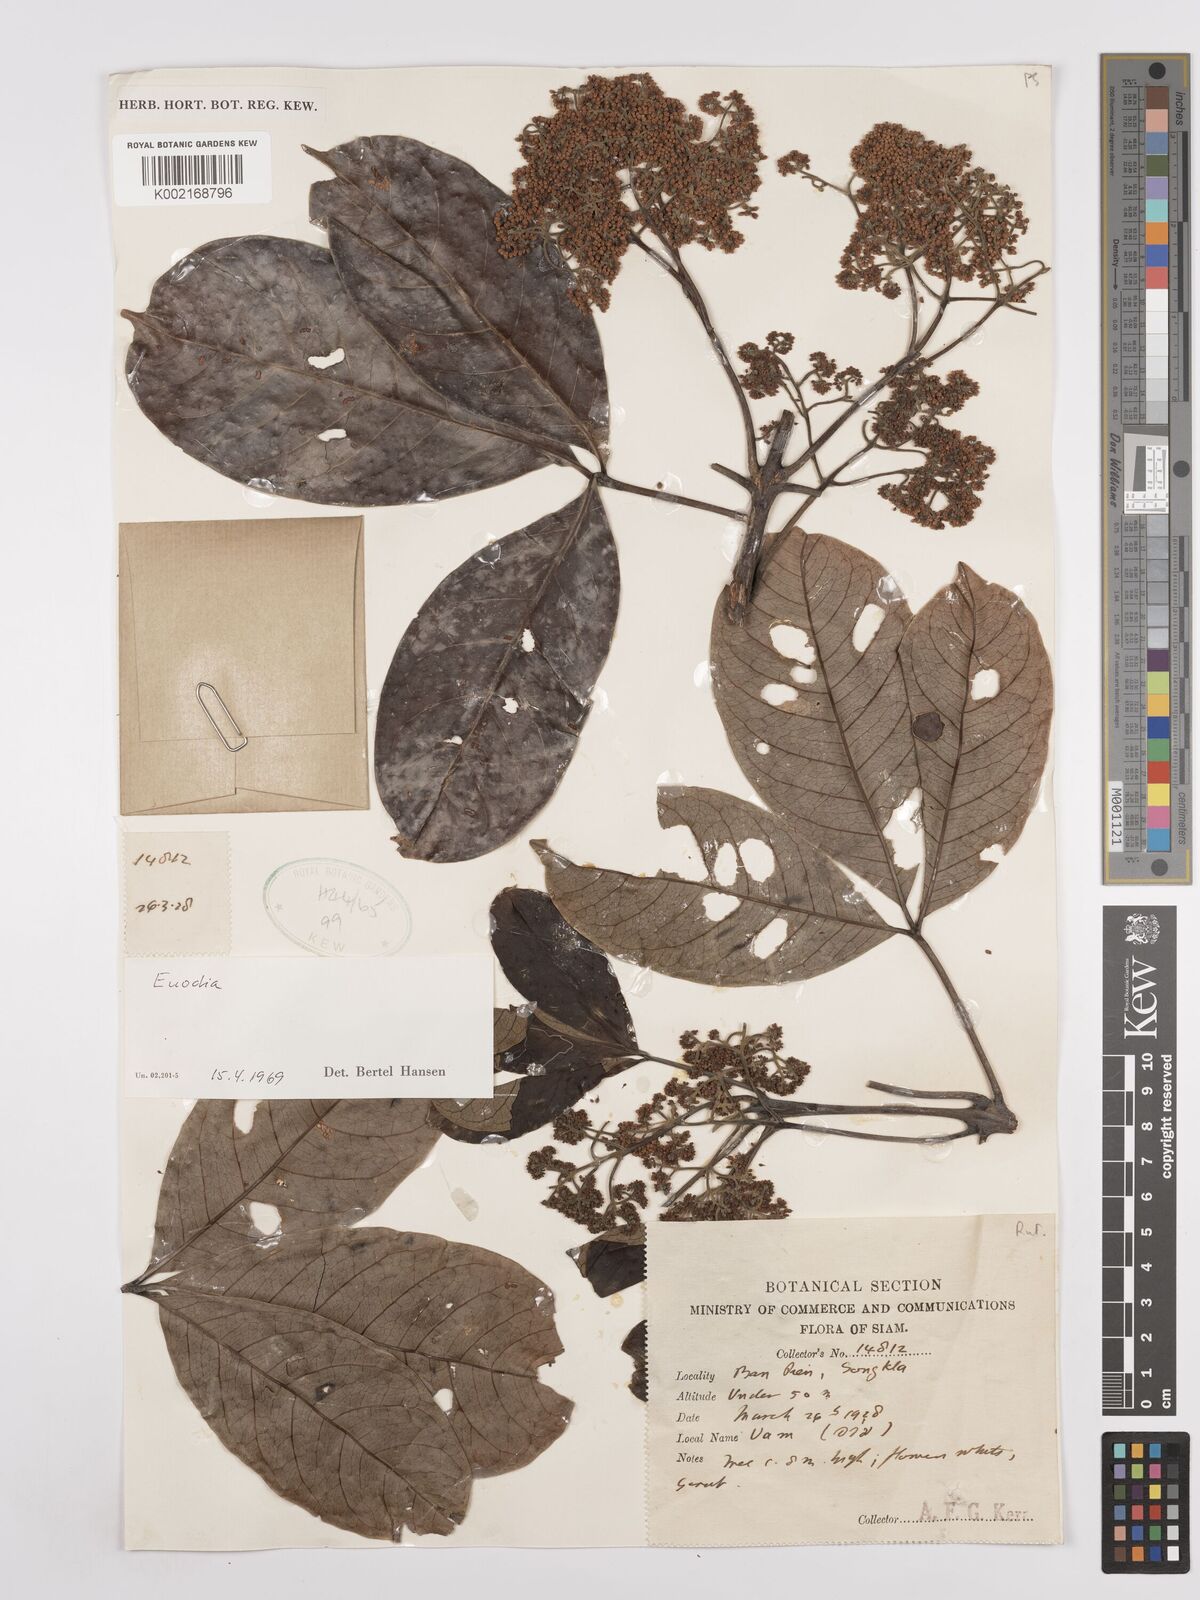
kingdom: Plantae
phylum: Tracheophyta
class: Magnoliopsida
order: Sapindales
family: Rutaceae
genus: Euodia
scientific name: Euodia
